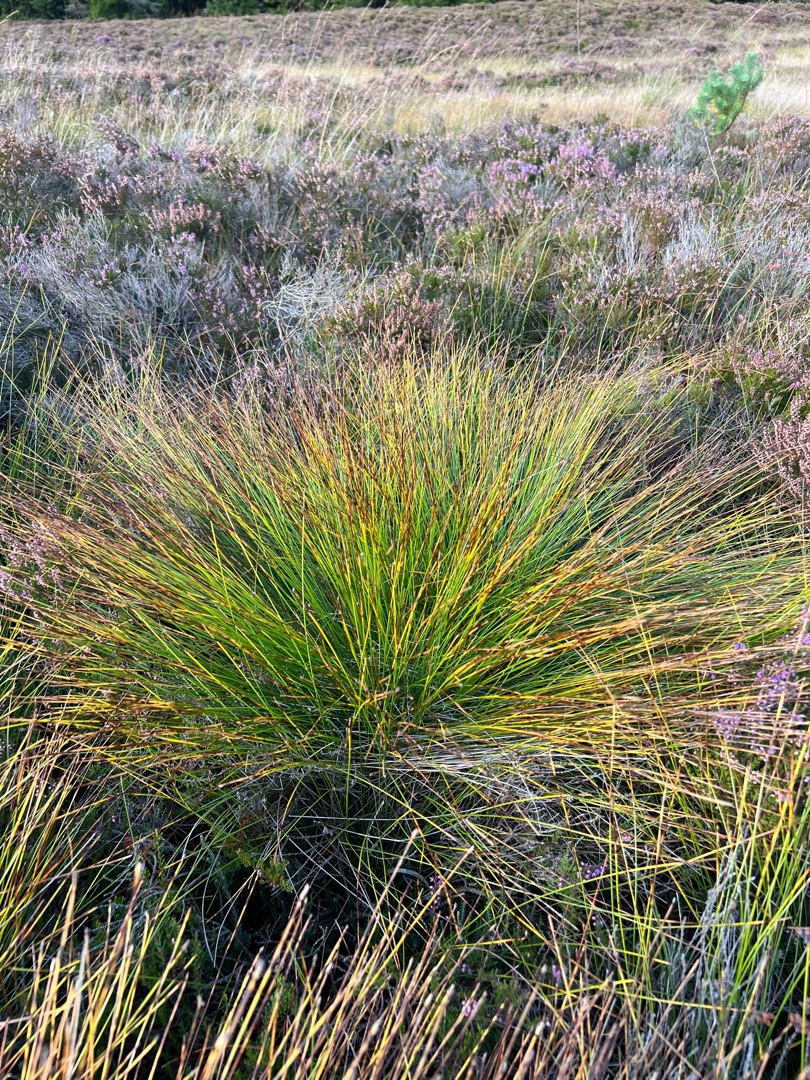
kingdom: Plantae
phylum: Tracheophyta
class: Liliopsida
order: Poales
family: Cyperaceae
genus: Trichophorum
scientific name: Trichophorum cespitosum
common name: Tuekogleaks
